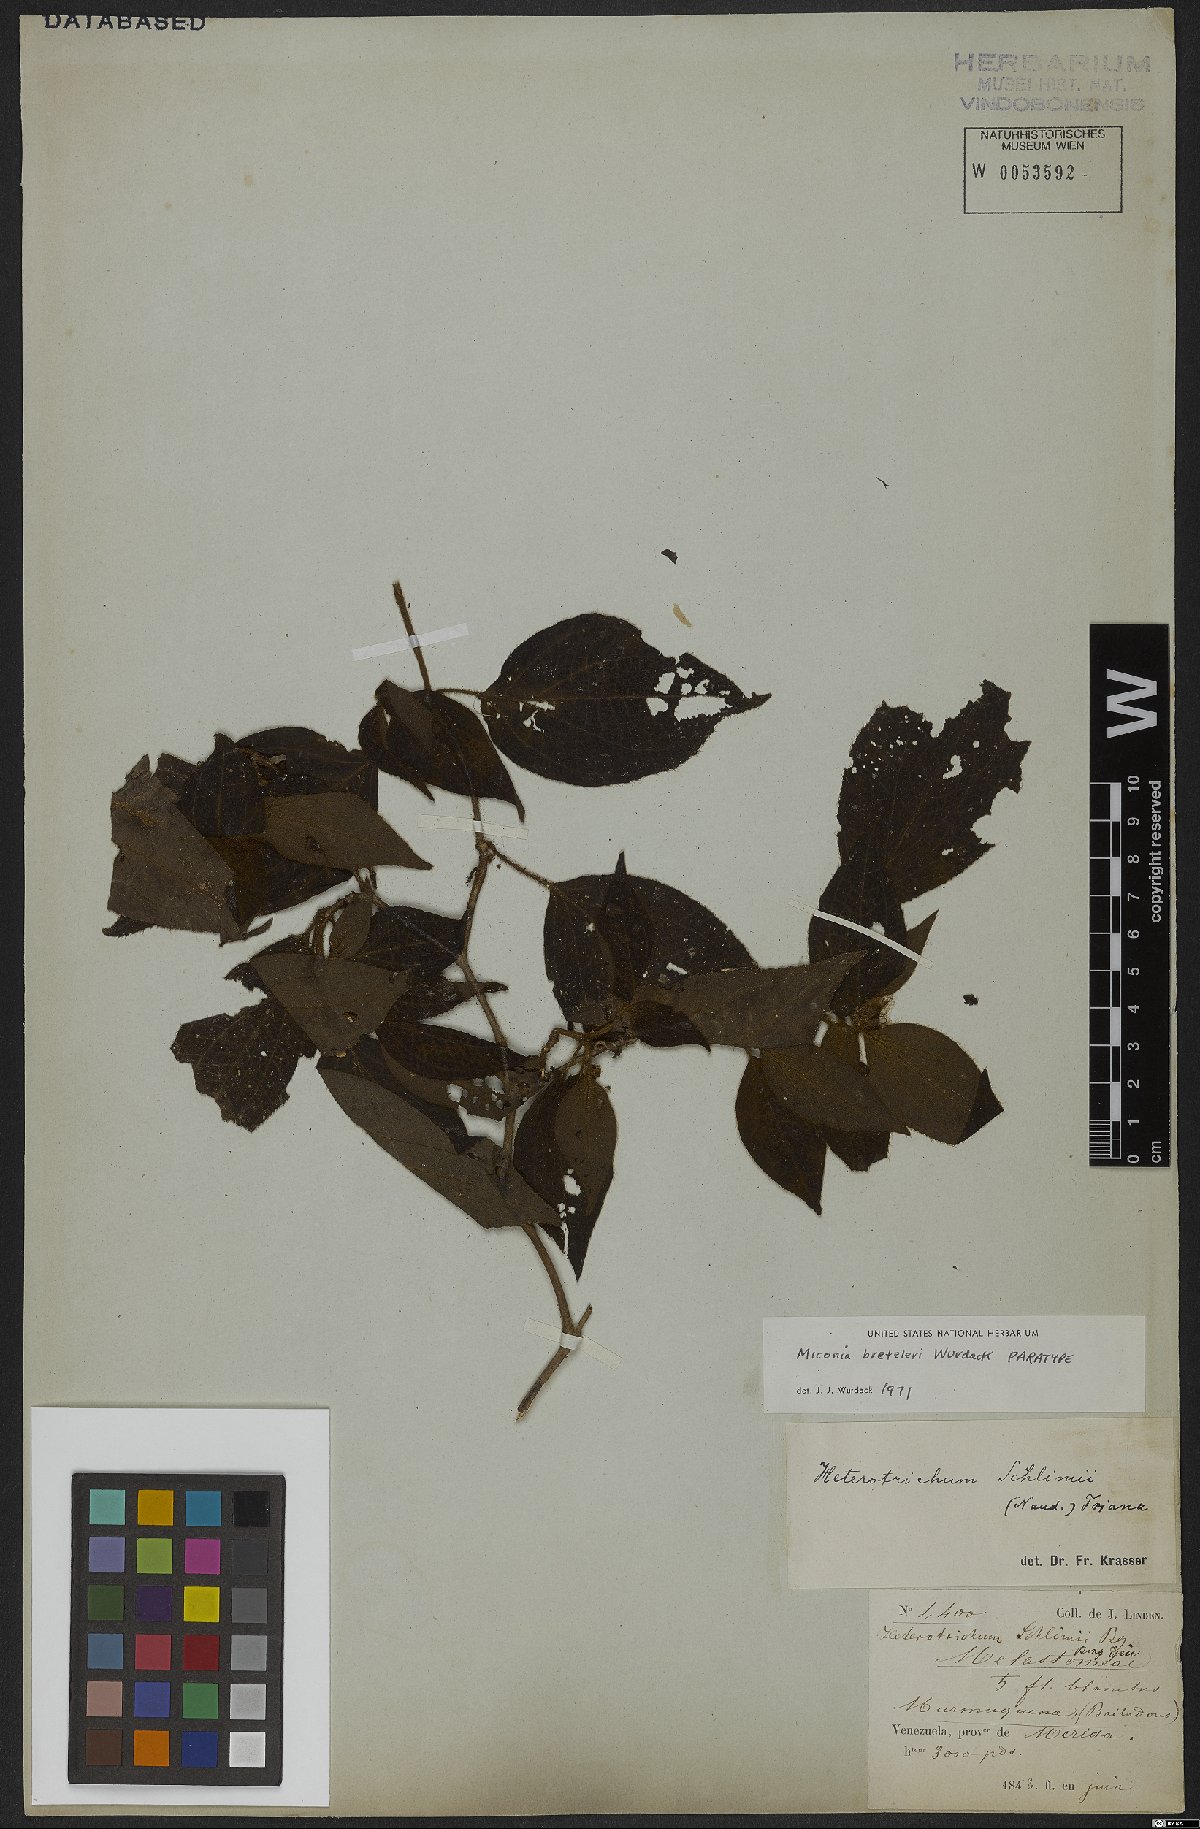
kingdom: Plantae
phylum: Tracheophyta
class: Magnoliopsida
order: Myrtales
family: Melastomataceae
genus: Miconia
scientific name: Miconia breteleri
